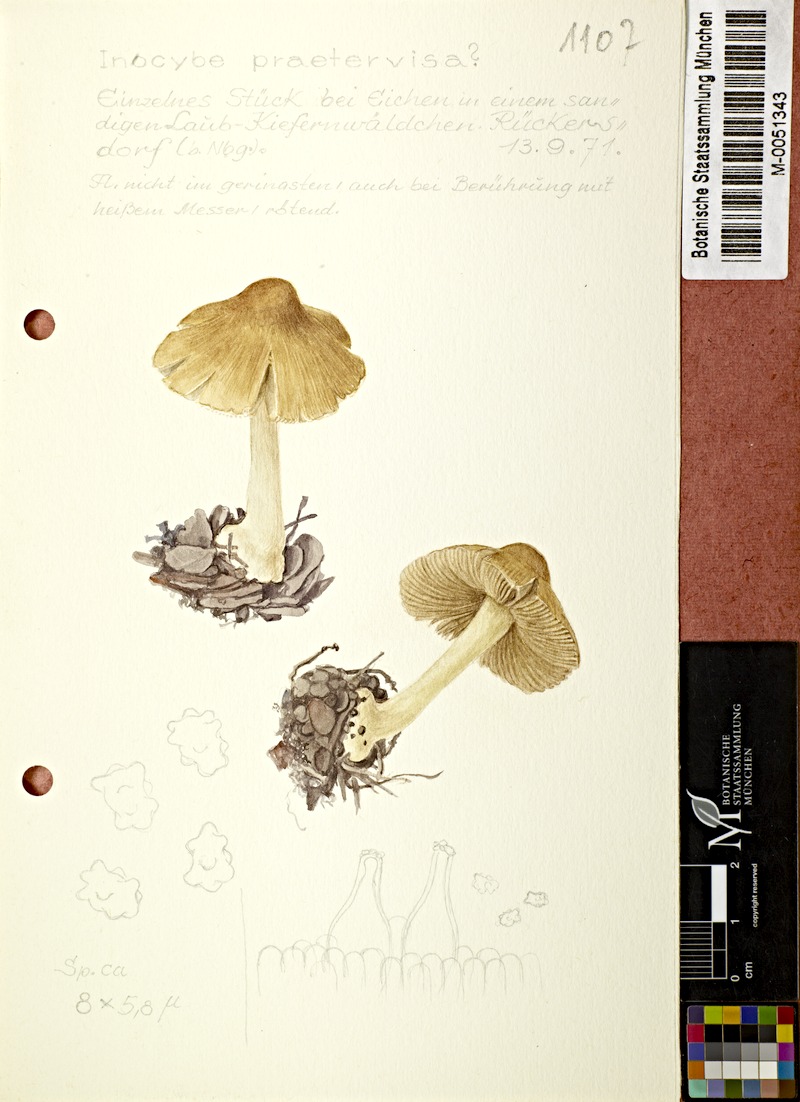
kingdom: Fungi
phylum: Basidiomycota
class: Agaricomycetes
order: Agaricales
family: Inocybaceae
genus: Inocybe
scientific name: Inocybe praetervisa
